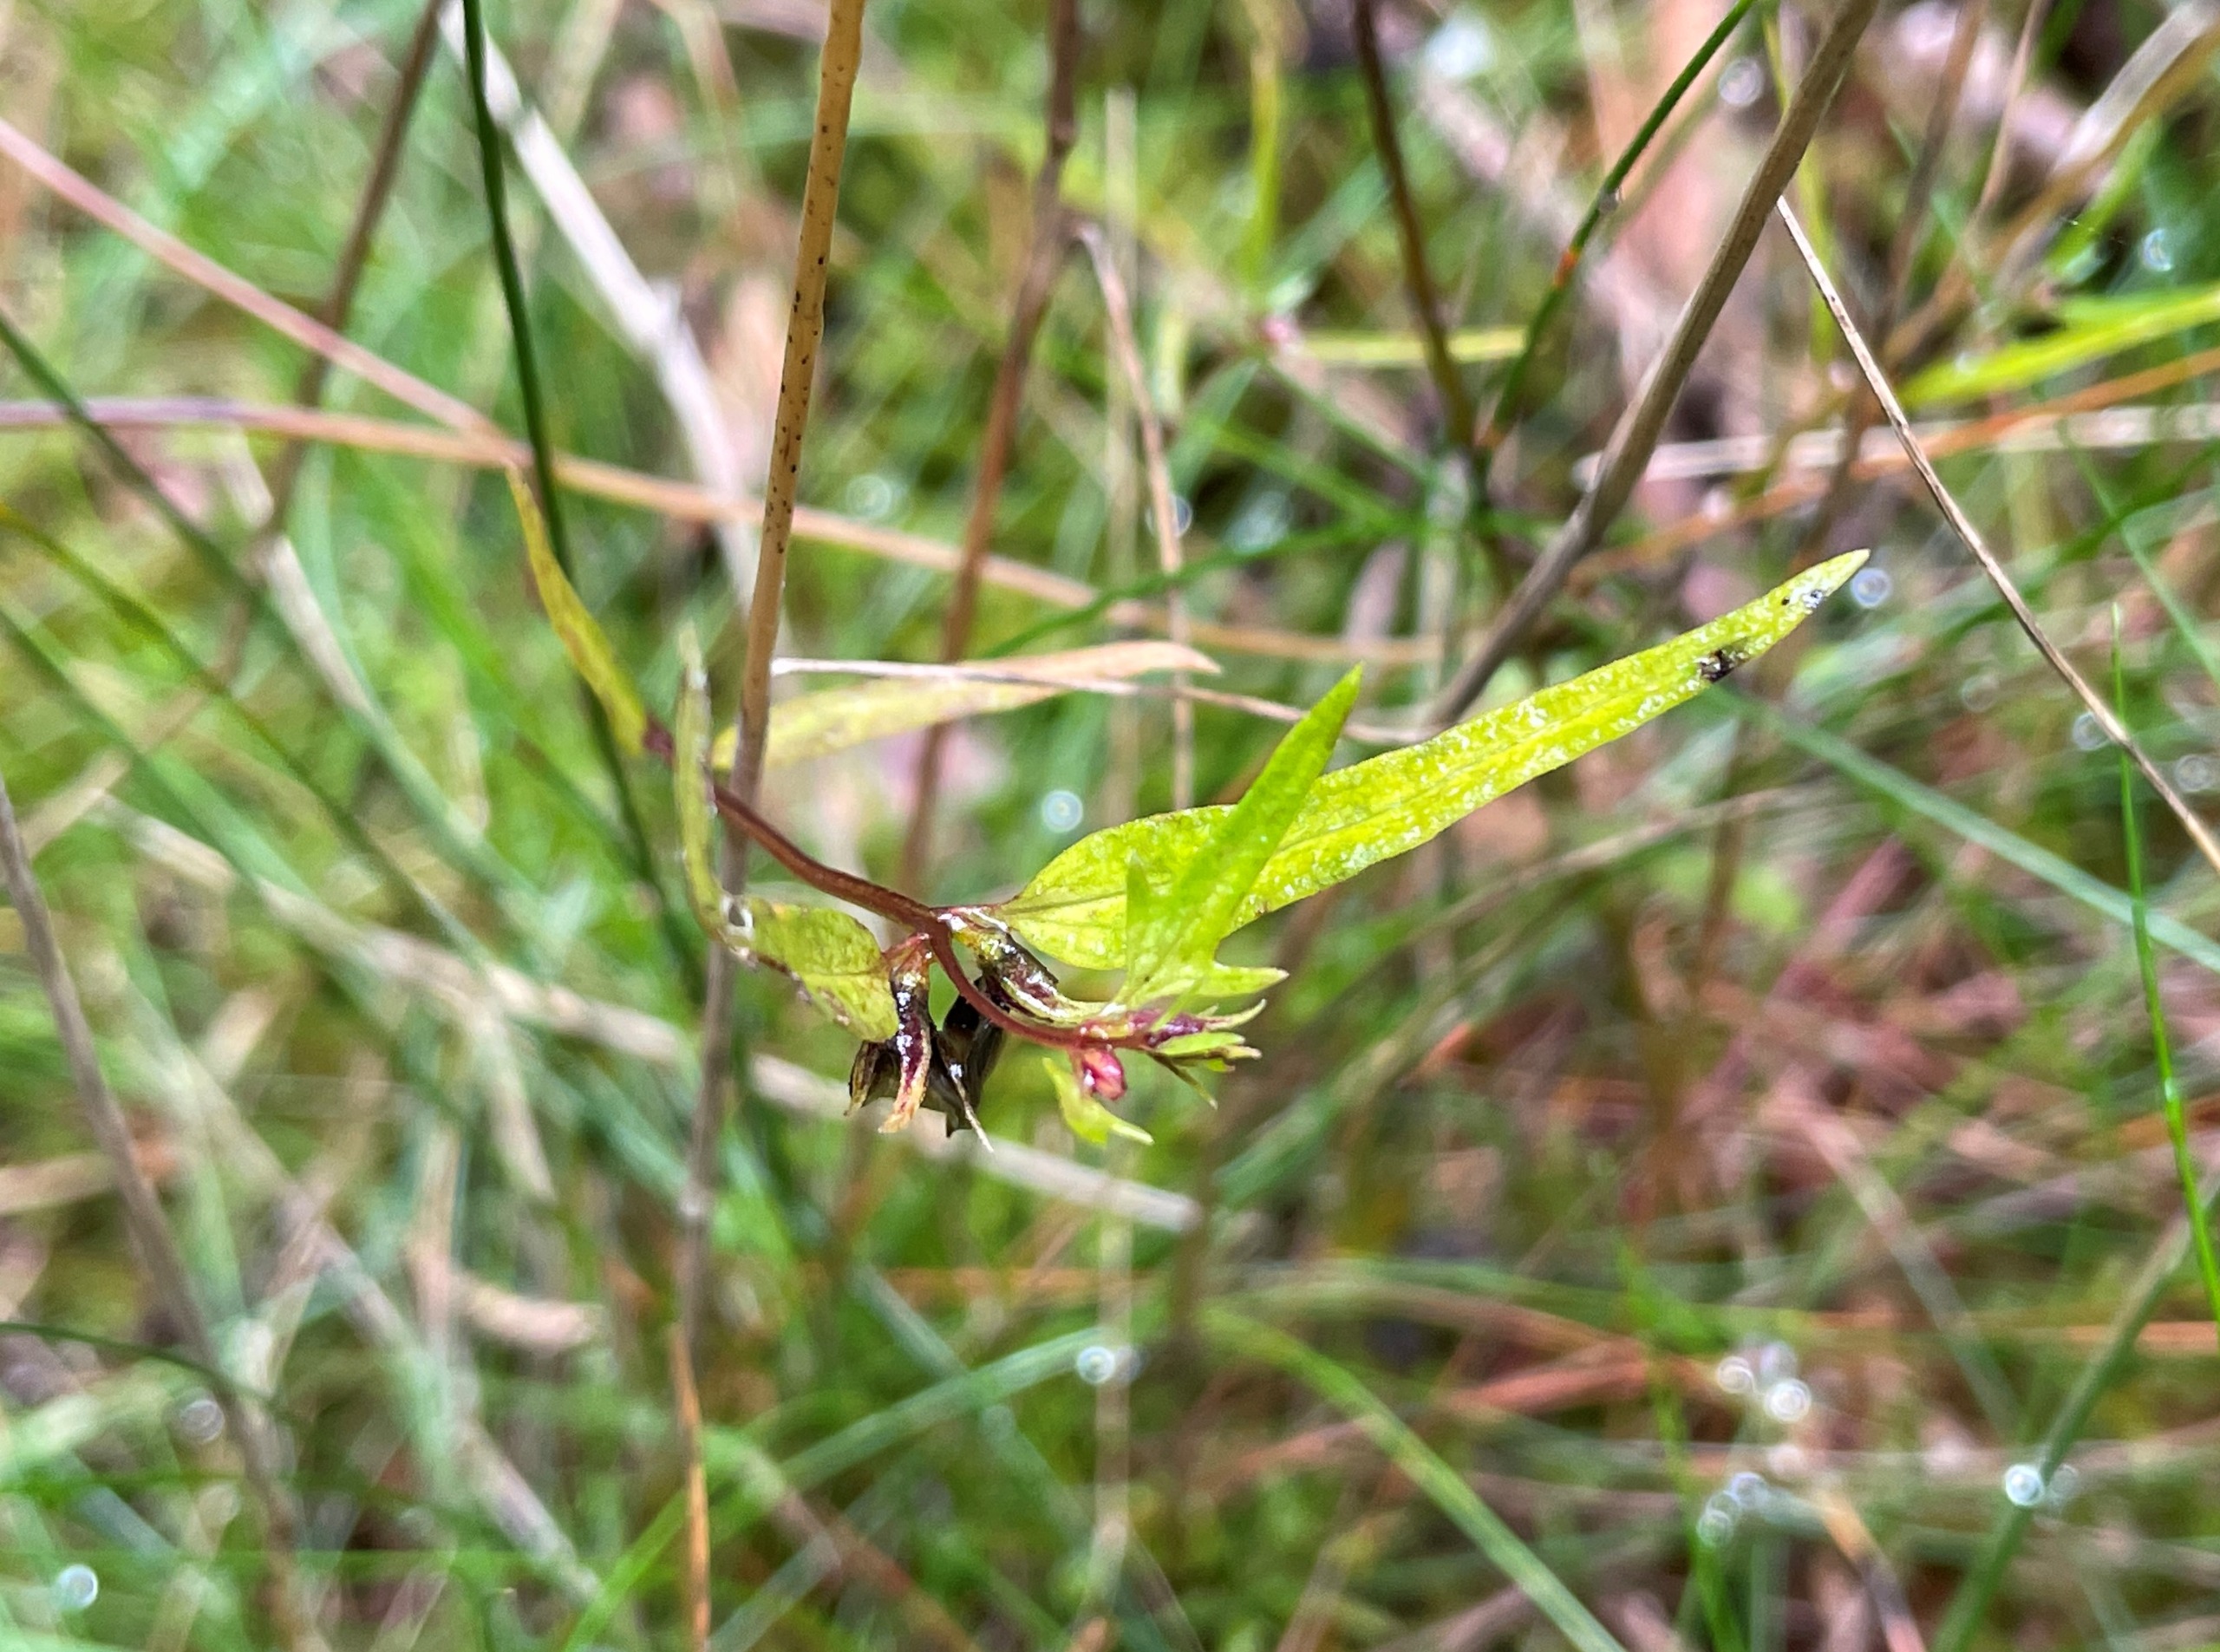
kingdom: Plantae
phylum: Tracheophyta
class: Magnoliopsida
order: Lamiales
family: Orobanchaceae
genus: Melampyrum
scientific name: Melampyrum pratense
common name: Almindelig kohvede
